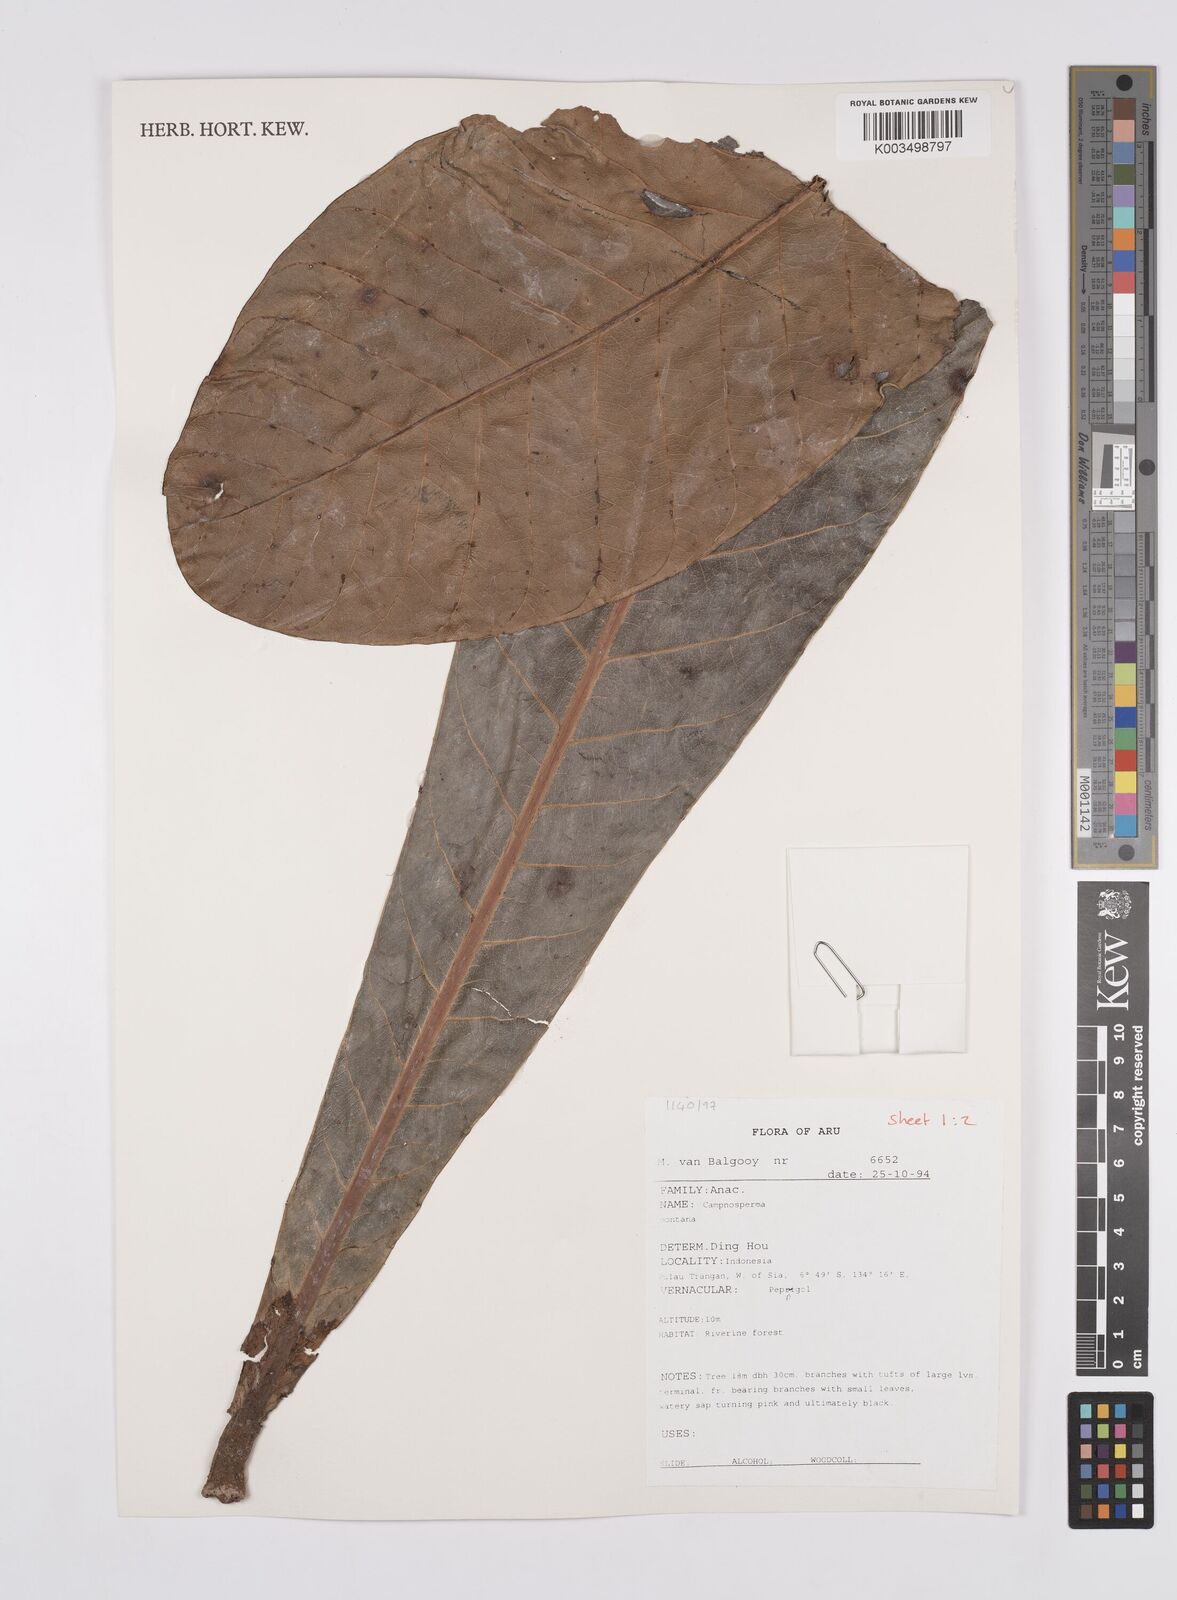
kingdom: Plantae
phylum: Tracheophyta
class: Magnoliopsida
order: Sapindales
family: Anacardiaceae
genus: Campnosperma
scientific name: Campnosperma montanum
